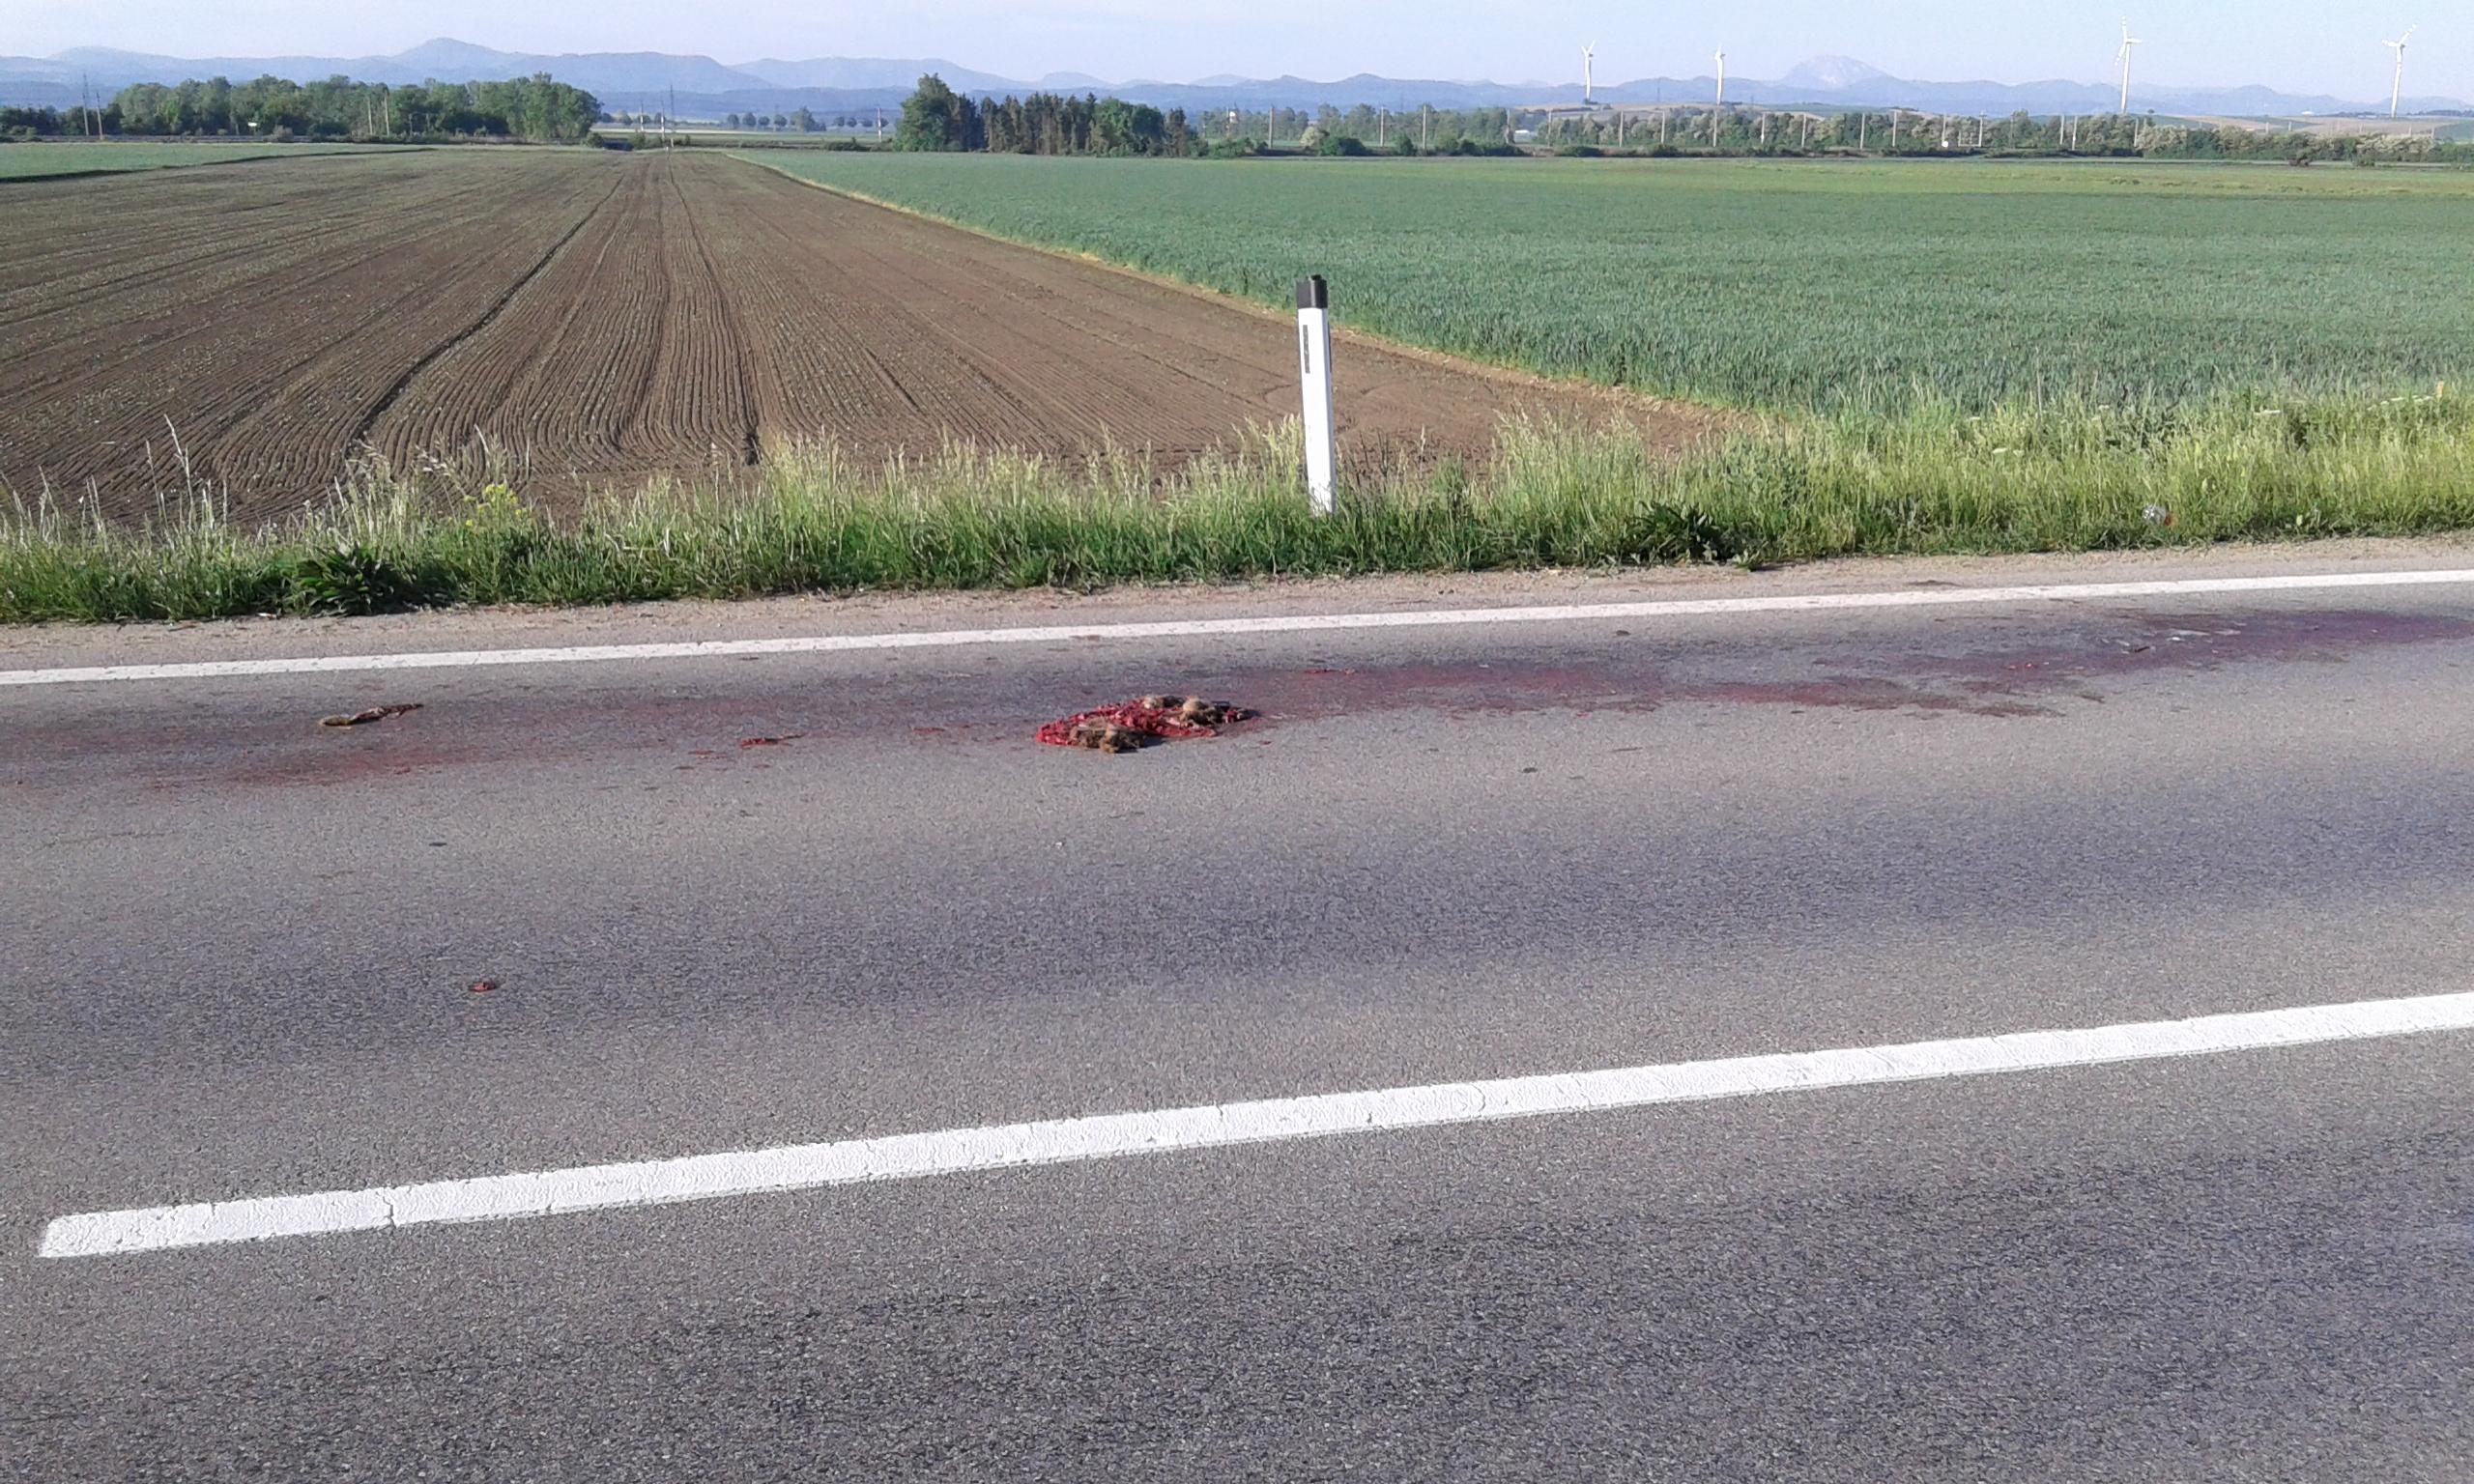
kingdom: Animalia
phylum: Chordata
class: Mammalia
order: Lagomorpha
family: Leporidae
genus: Lepus
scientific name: Lepus europaeus
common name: European hare
